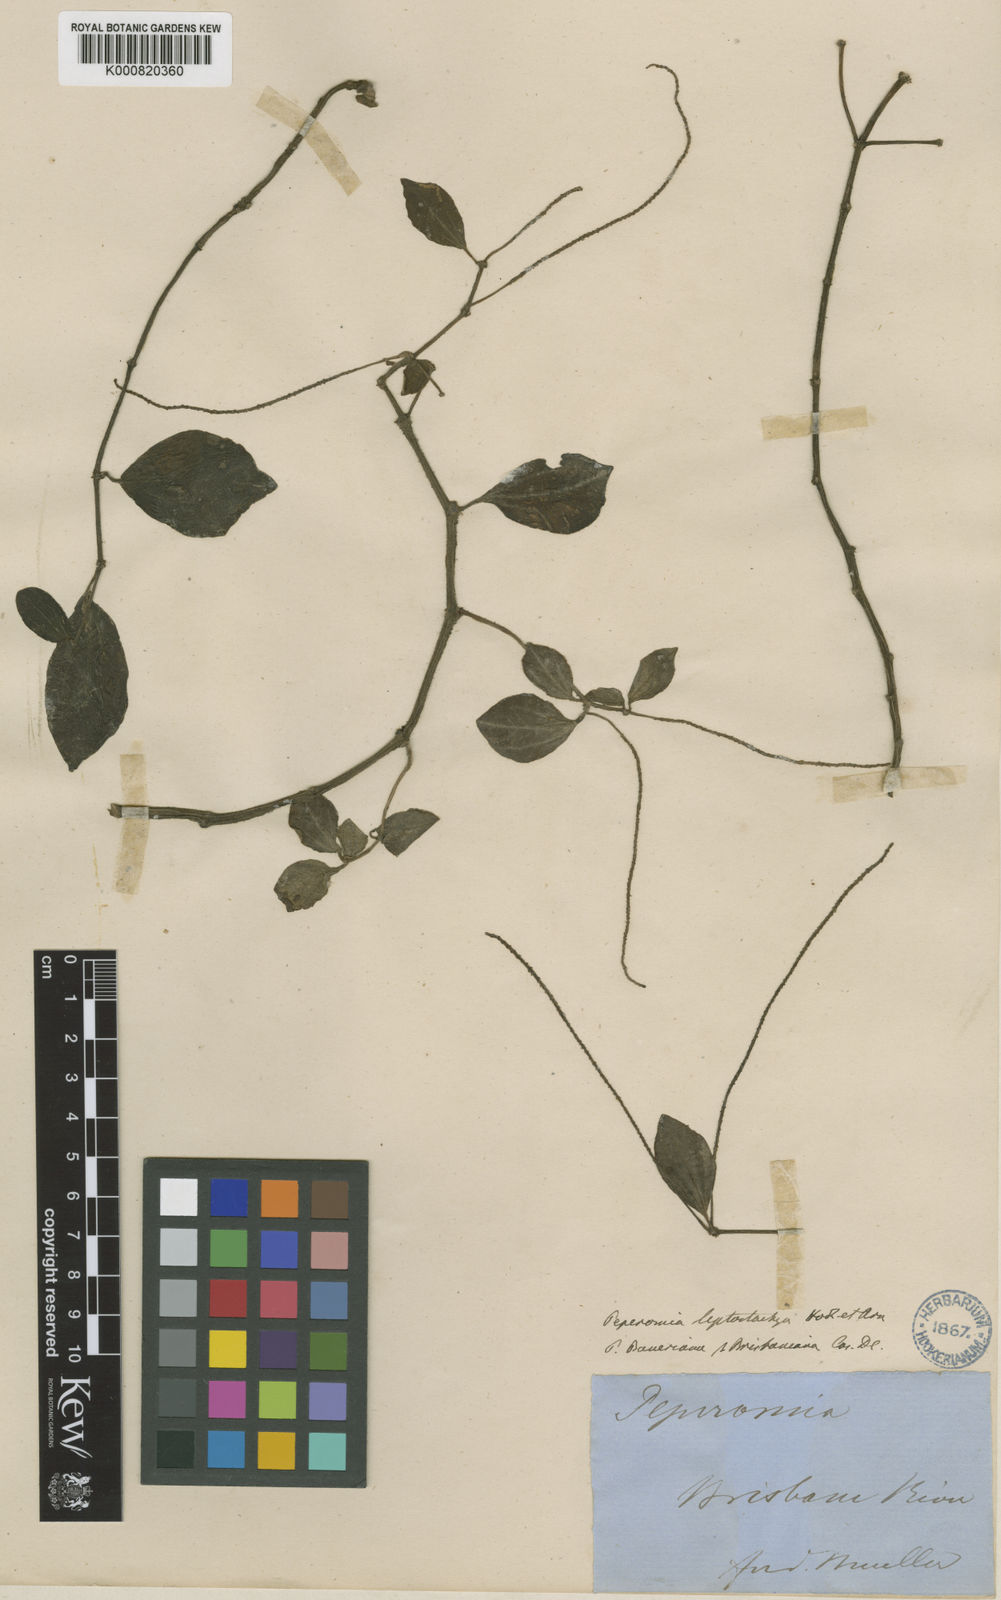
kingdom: Plantae
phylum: Tracheophyta
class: Magnoliopsida
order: Piperales
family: Piperaceae
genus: Peperomia
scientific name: Peperomia leptostachya
